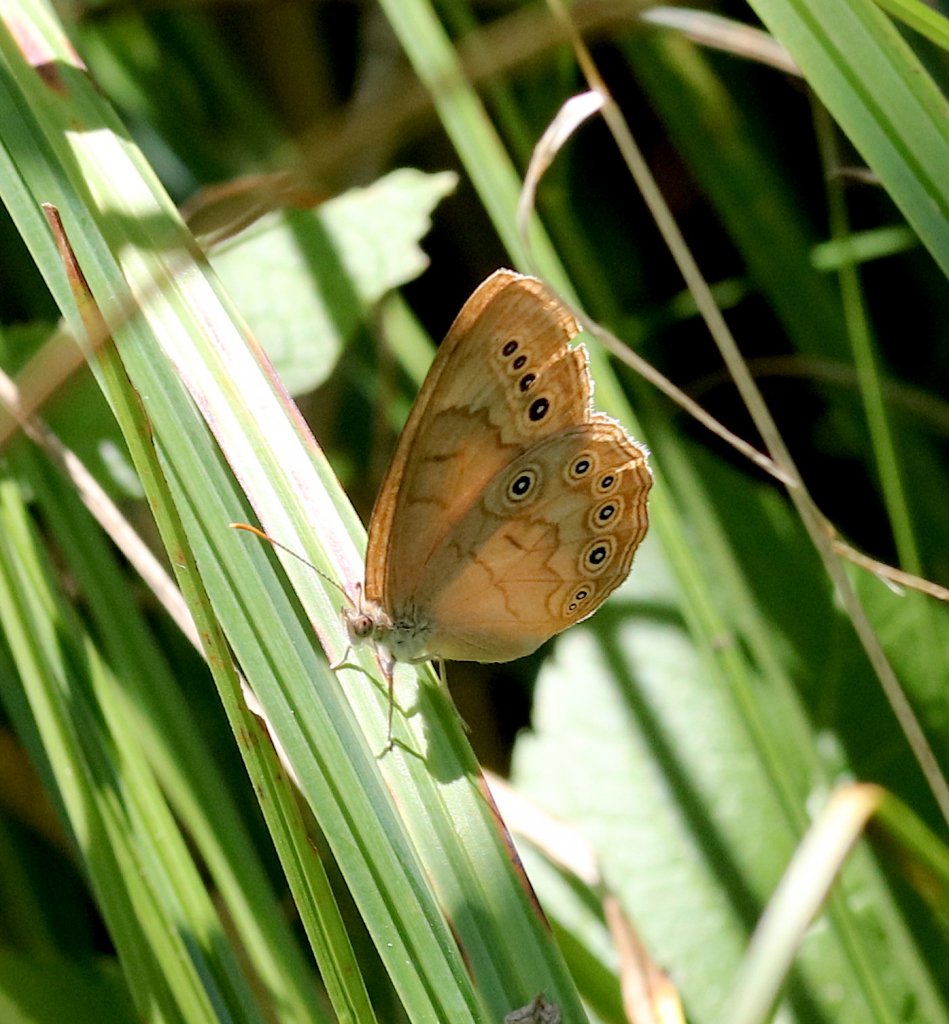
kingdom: Animalia
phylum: Arthropoda
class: Insecta
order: Lepidoptera
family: Nymphalidae
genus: Lethe
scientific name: Lethe eurydice
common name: Eyed Brown
